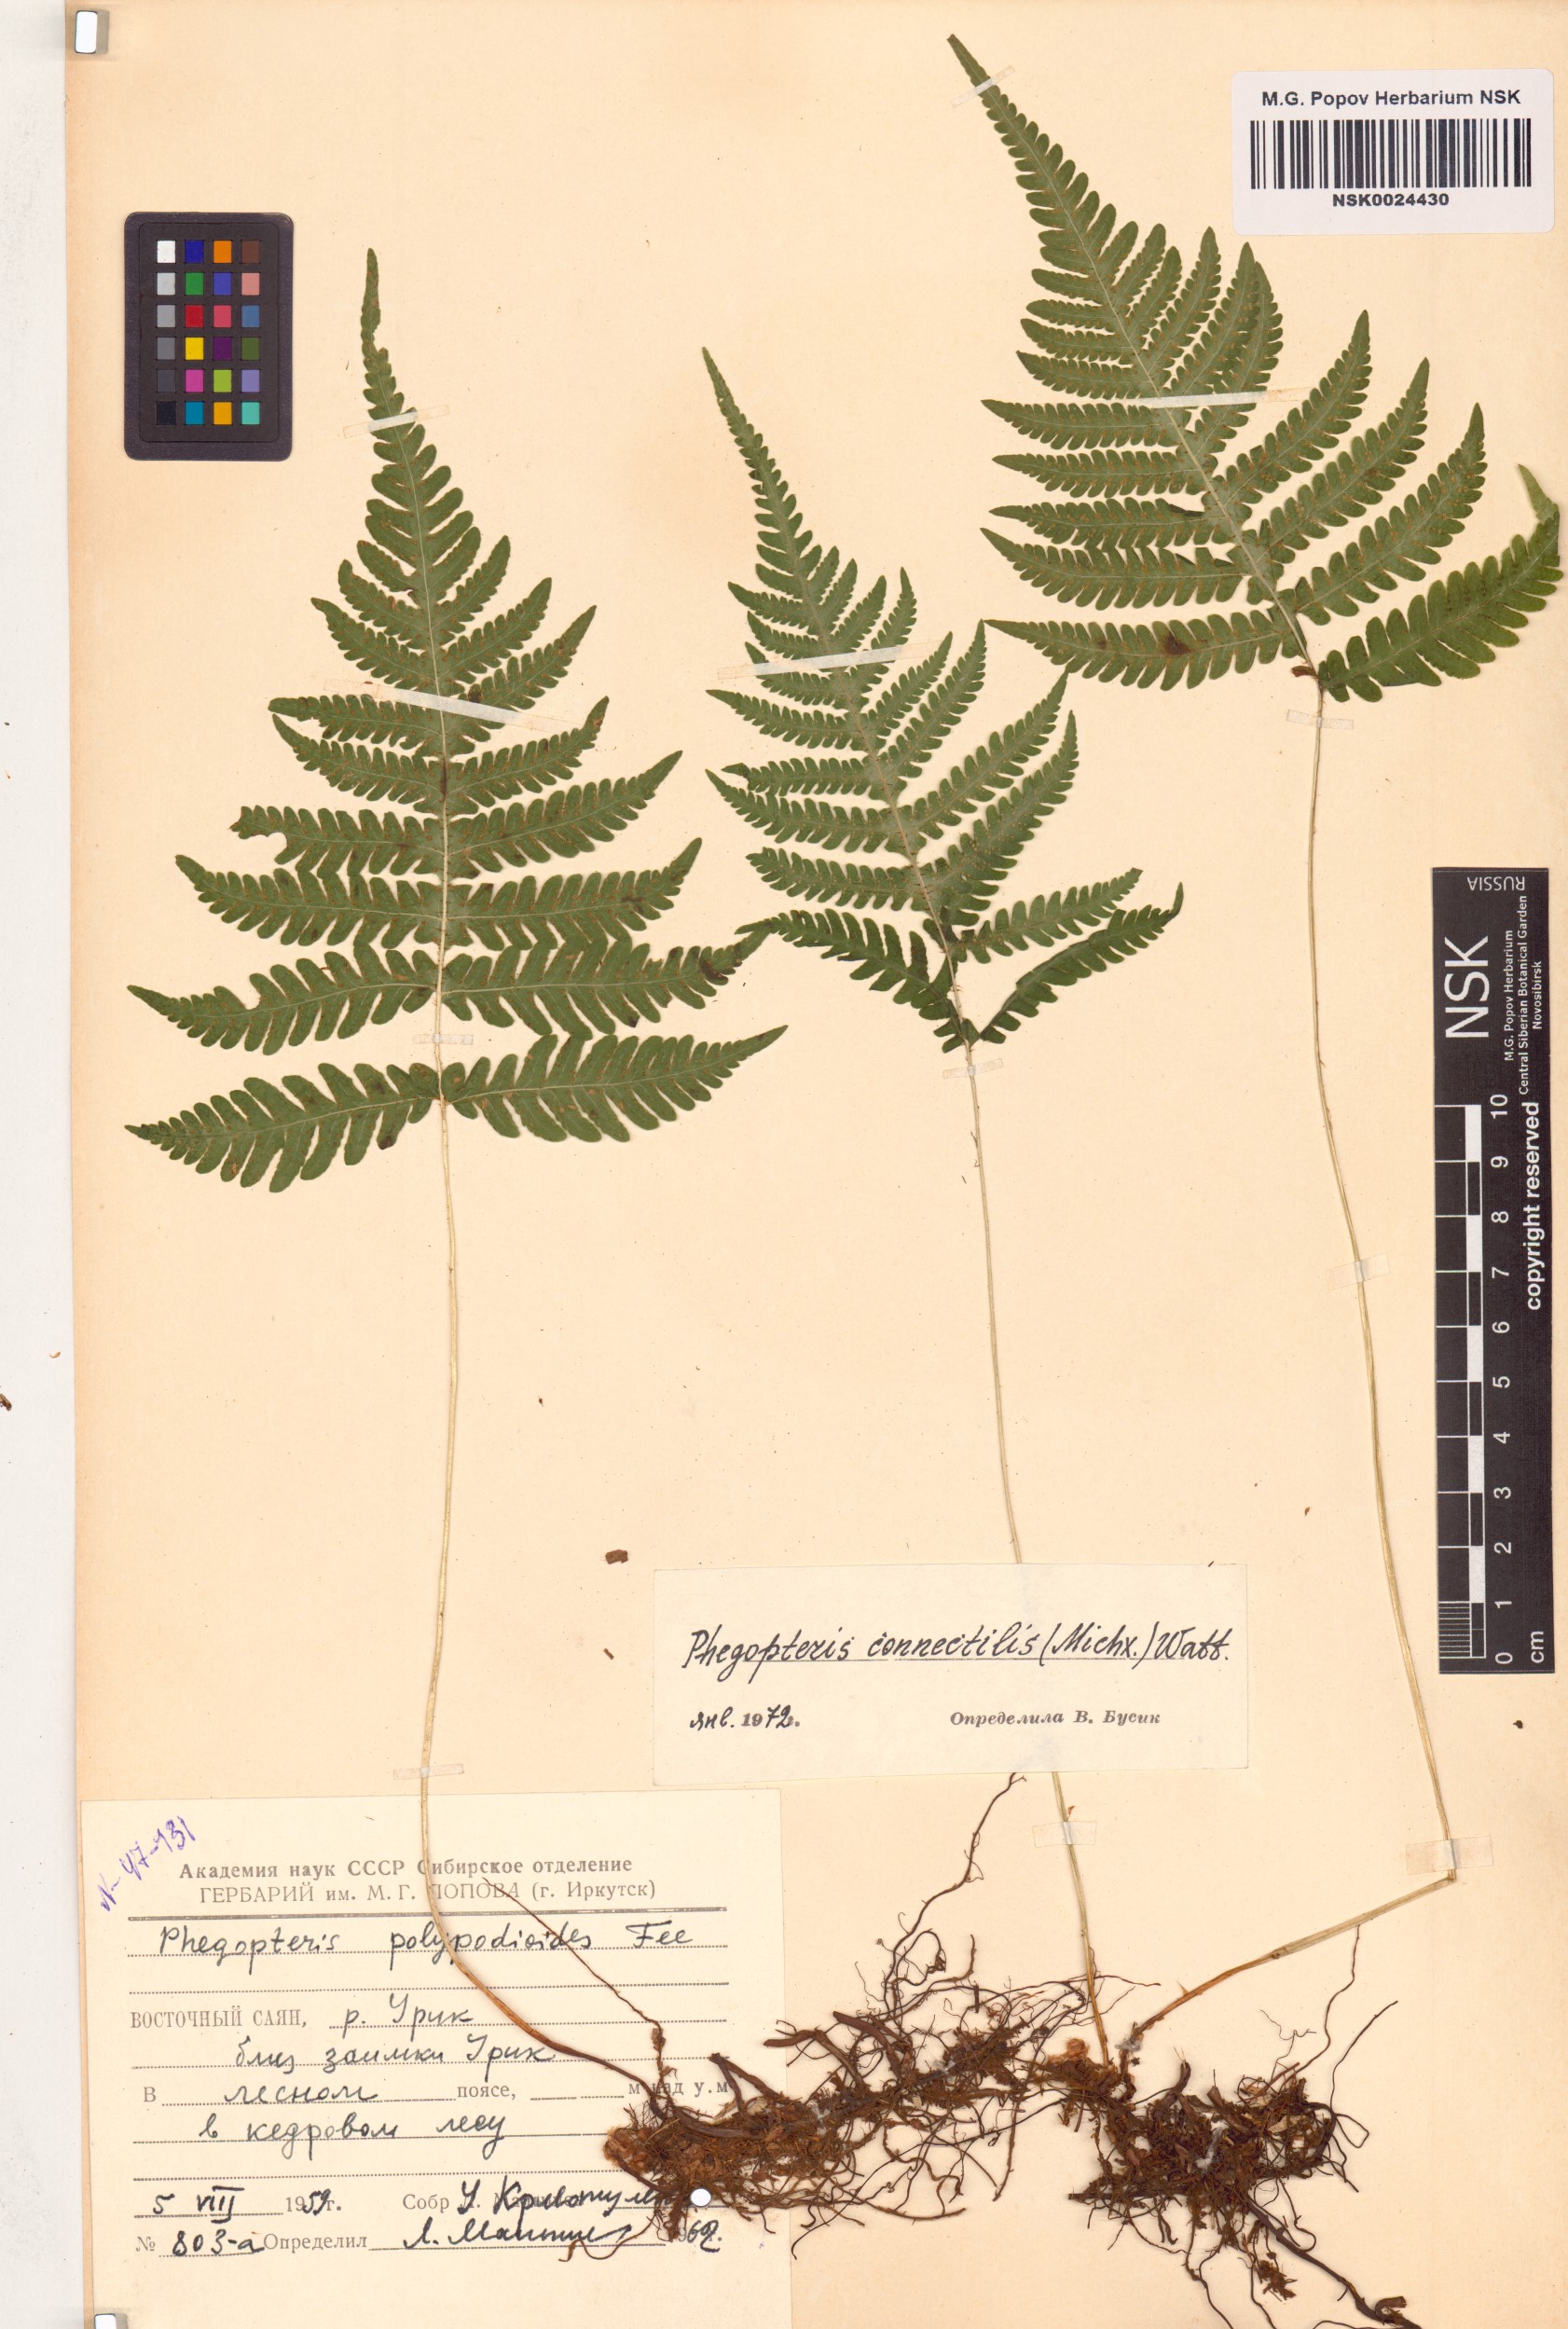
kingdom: Plantae
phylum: Tracheophyta
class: Polypodiopsida
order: Polypodiales
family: Thelypteridaceae
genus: Phegopteris
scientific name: Phegopteris connectilis
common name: Beech fern
